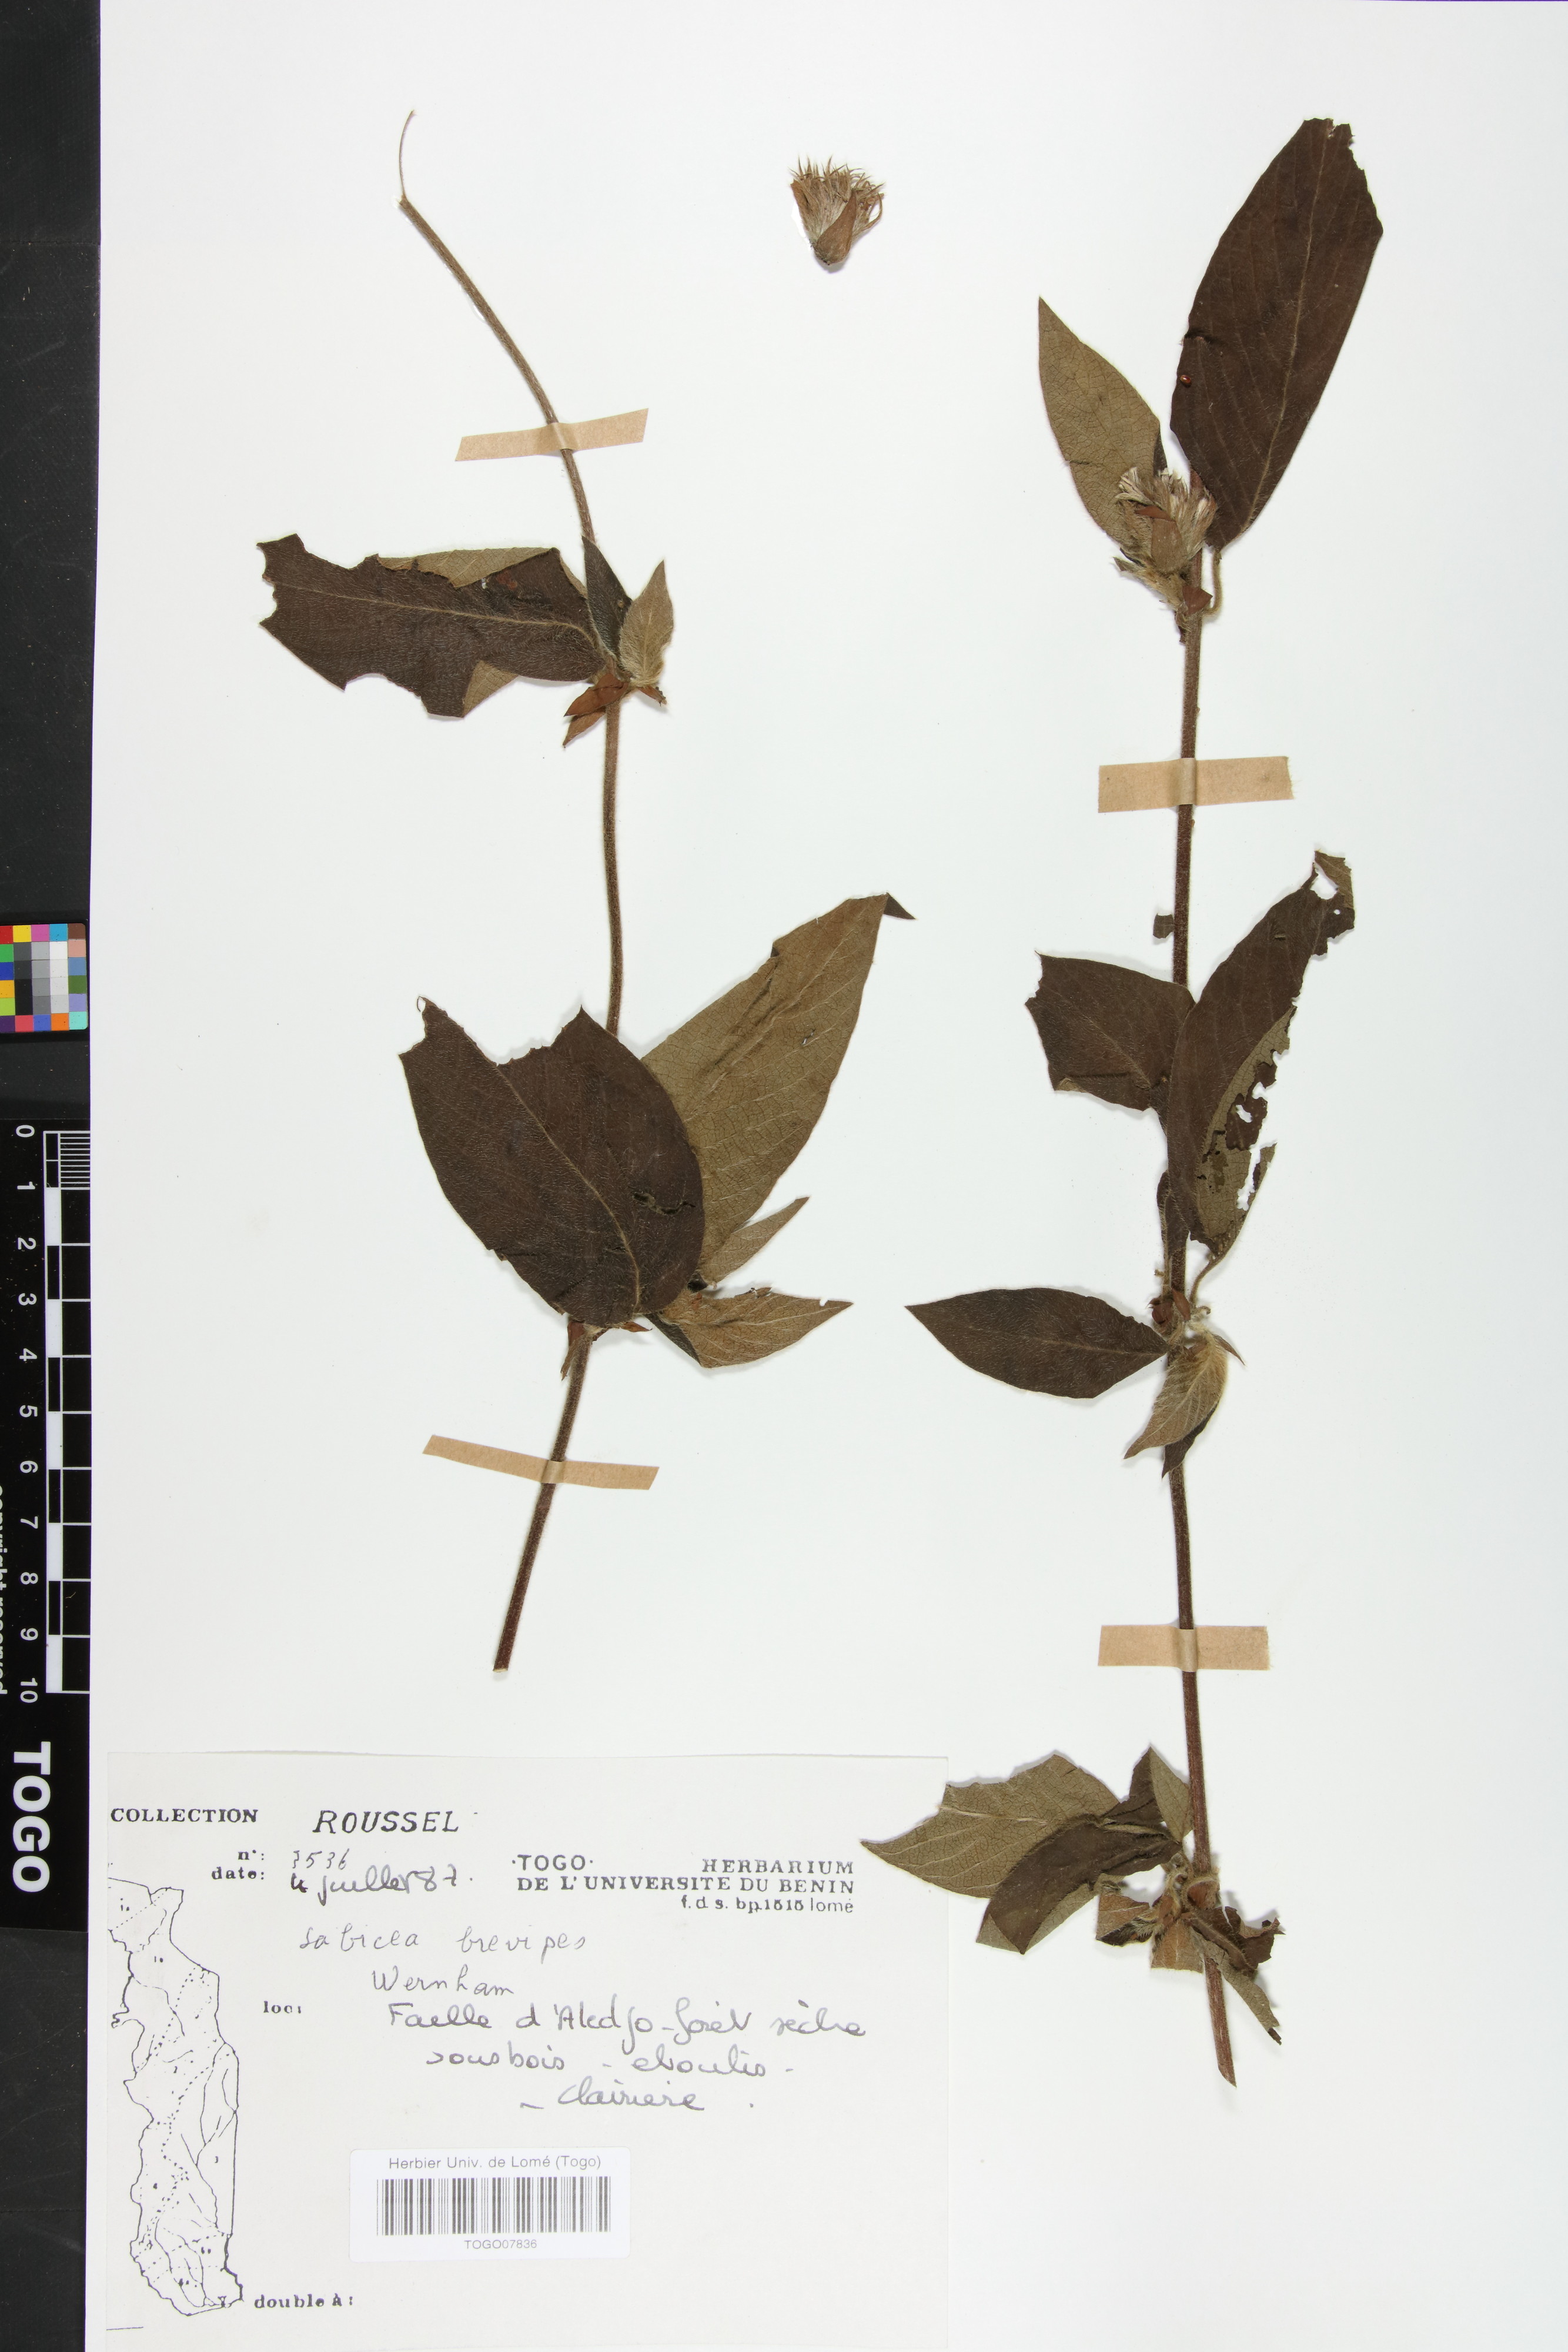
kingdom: Plantae
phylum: Tracheophyta
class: Magnoliopsida
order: Gentianales
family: Rubiaceae
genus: Sabicea
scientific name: Sabicea brevipes
